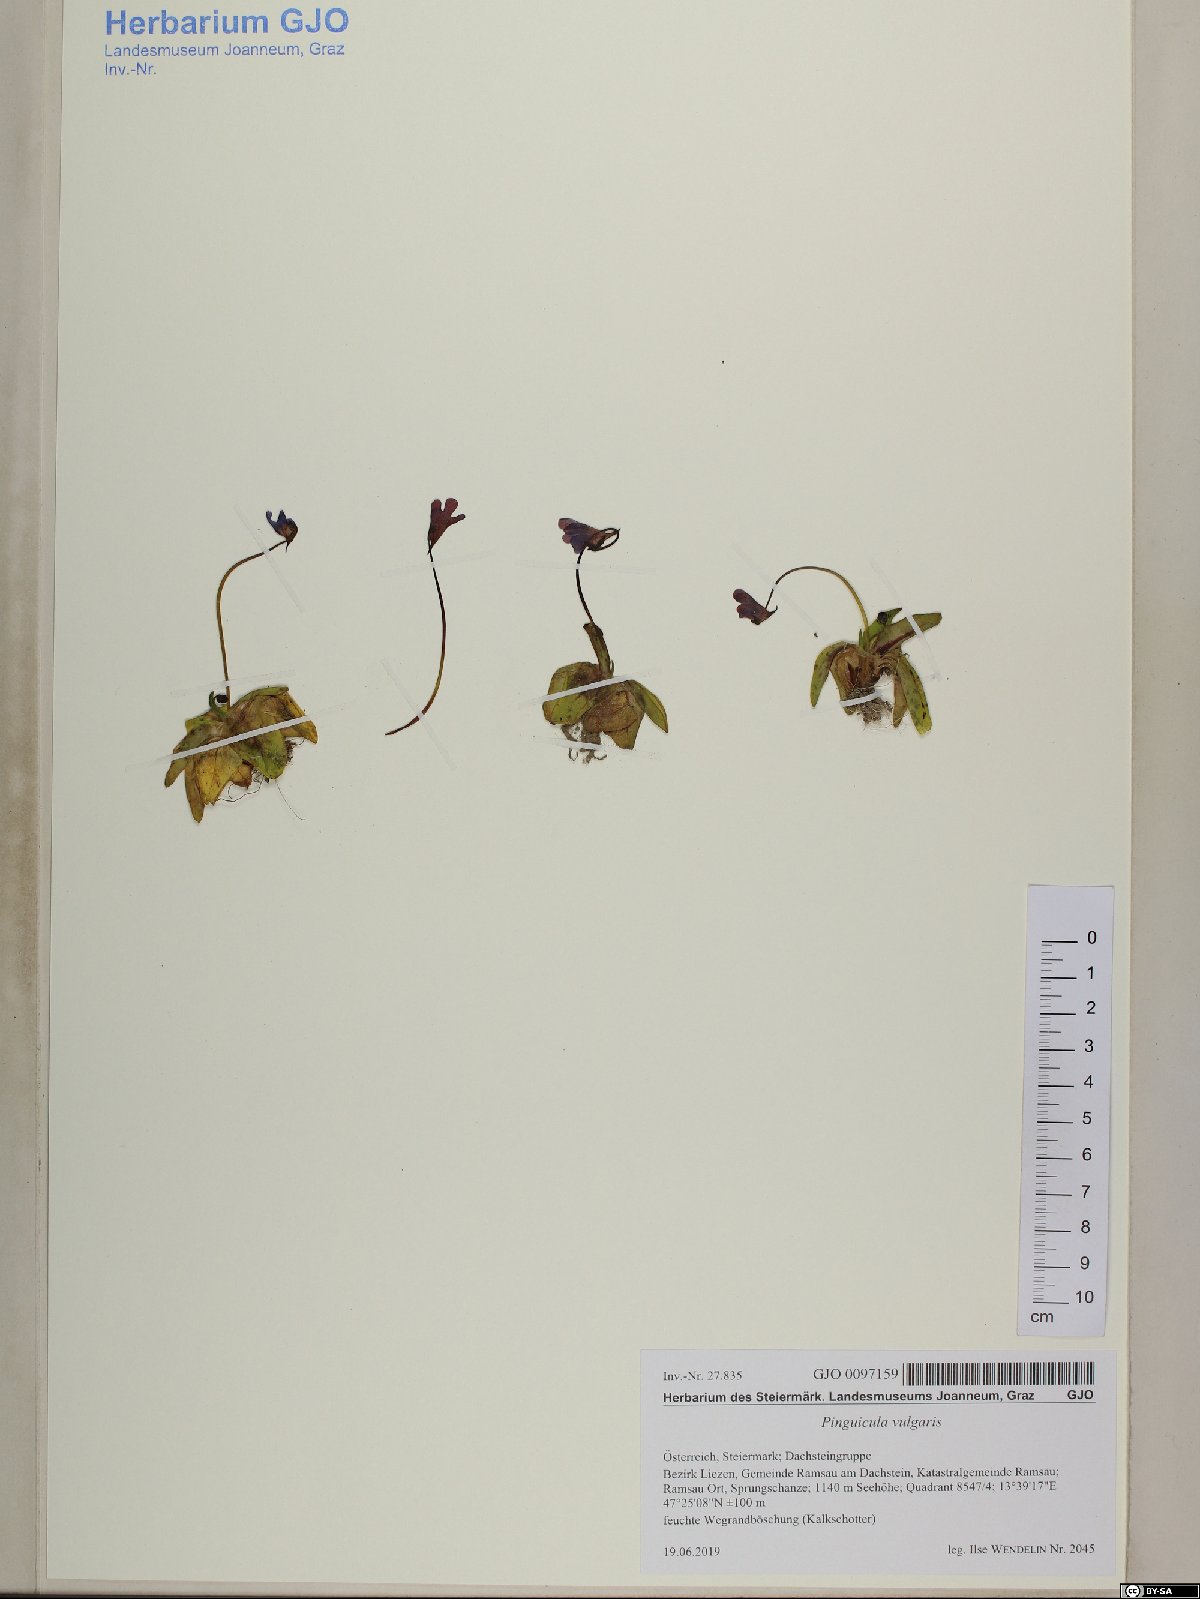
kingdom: Plantae
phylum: Tracheophyta
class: Magnoliopsida
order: Lamiales
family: Lentibulariaceae
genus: Pinguicula
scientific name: Pinguicula vulgaris
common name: Common butterwort
